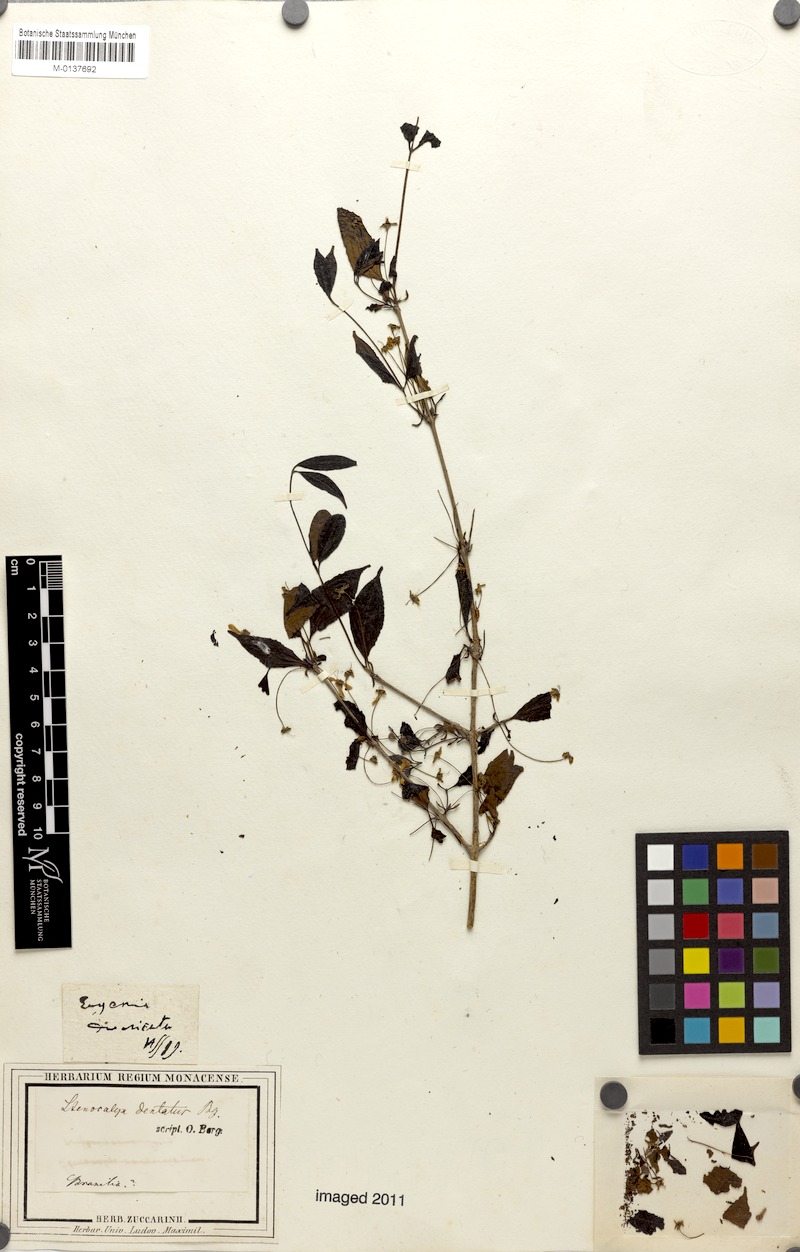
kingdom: Plantae
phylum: Tracheophyta
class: Magnoliopsida
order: Myrtales
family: Myrtaceae
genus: Eugenia
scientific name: Eugenia dentata
